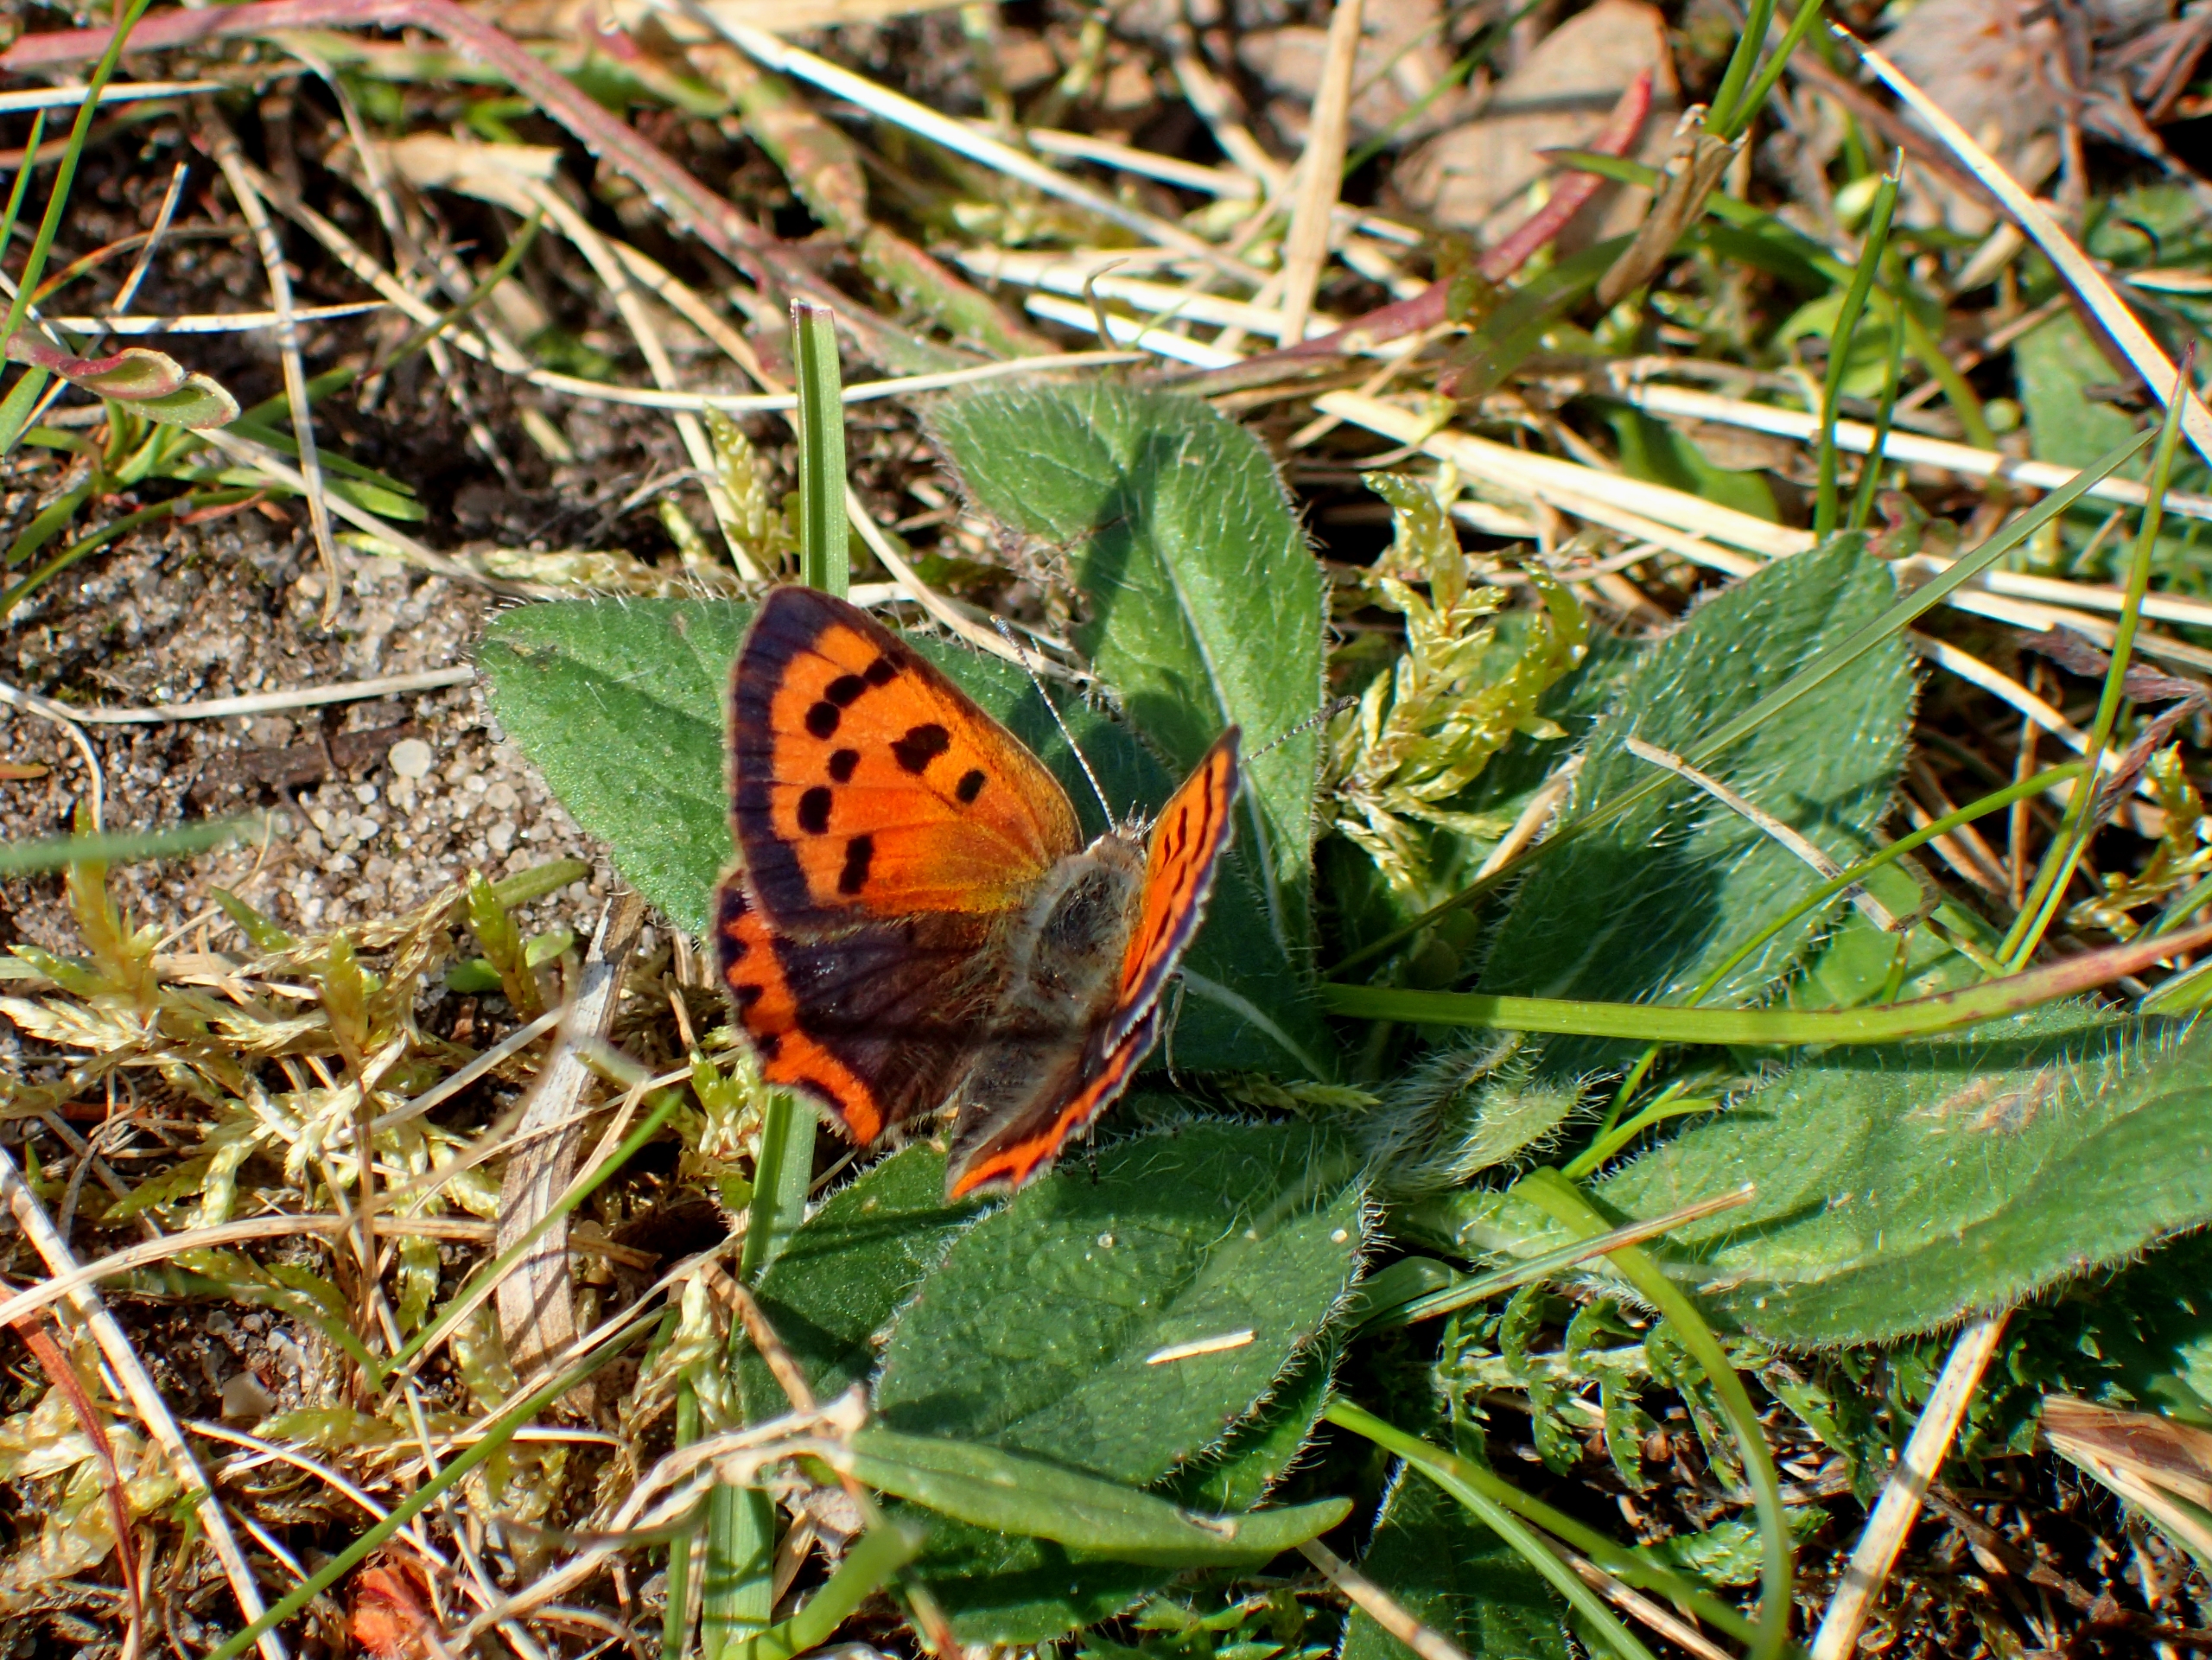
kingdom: Animalia
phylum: Arthropoda
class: Insecta
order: Lepidoptera
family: Lycaenidae
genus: Lycaena
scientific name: Lycaena phlaeas
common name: Lille ildfugl
